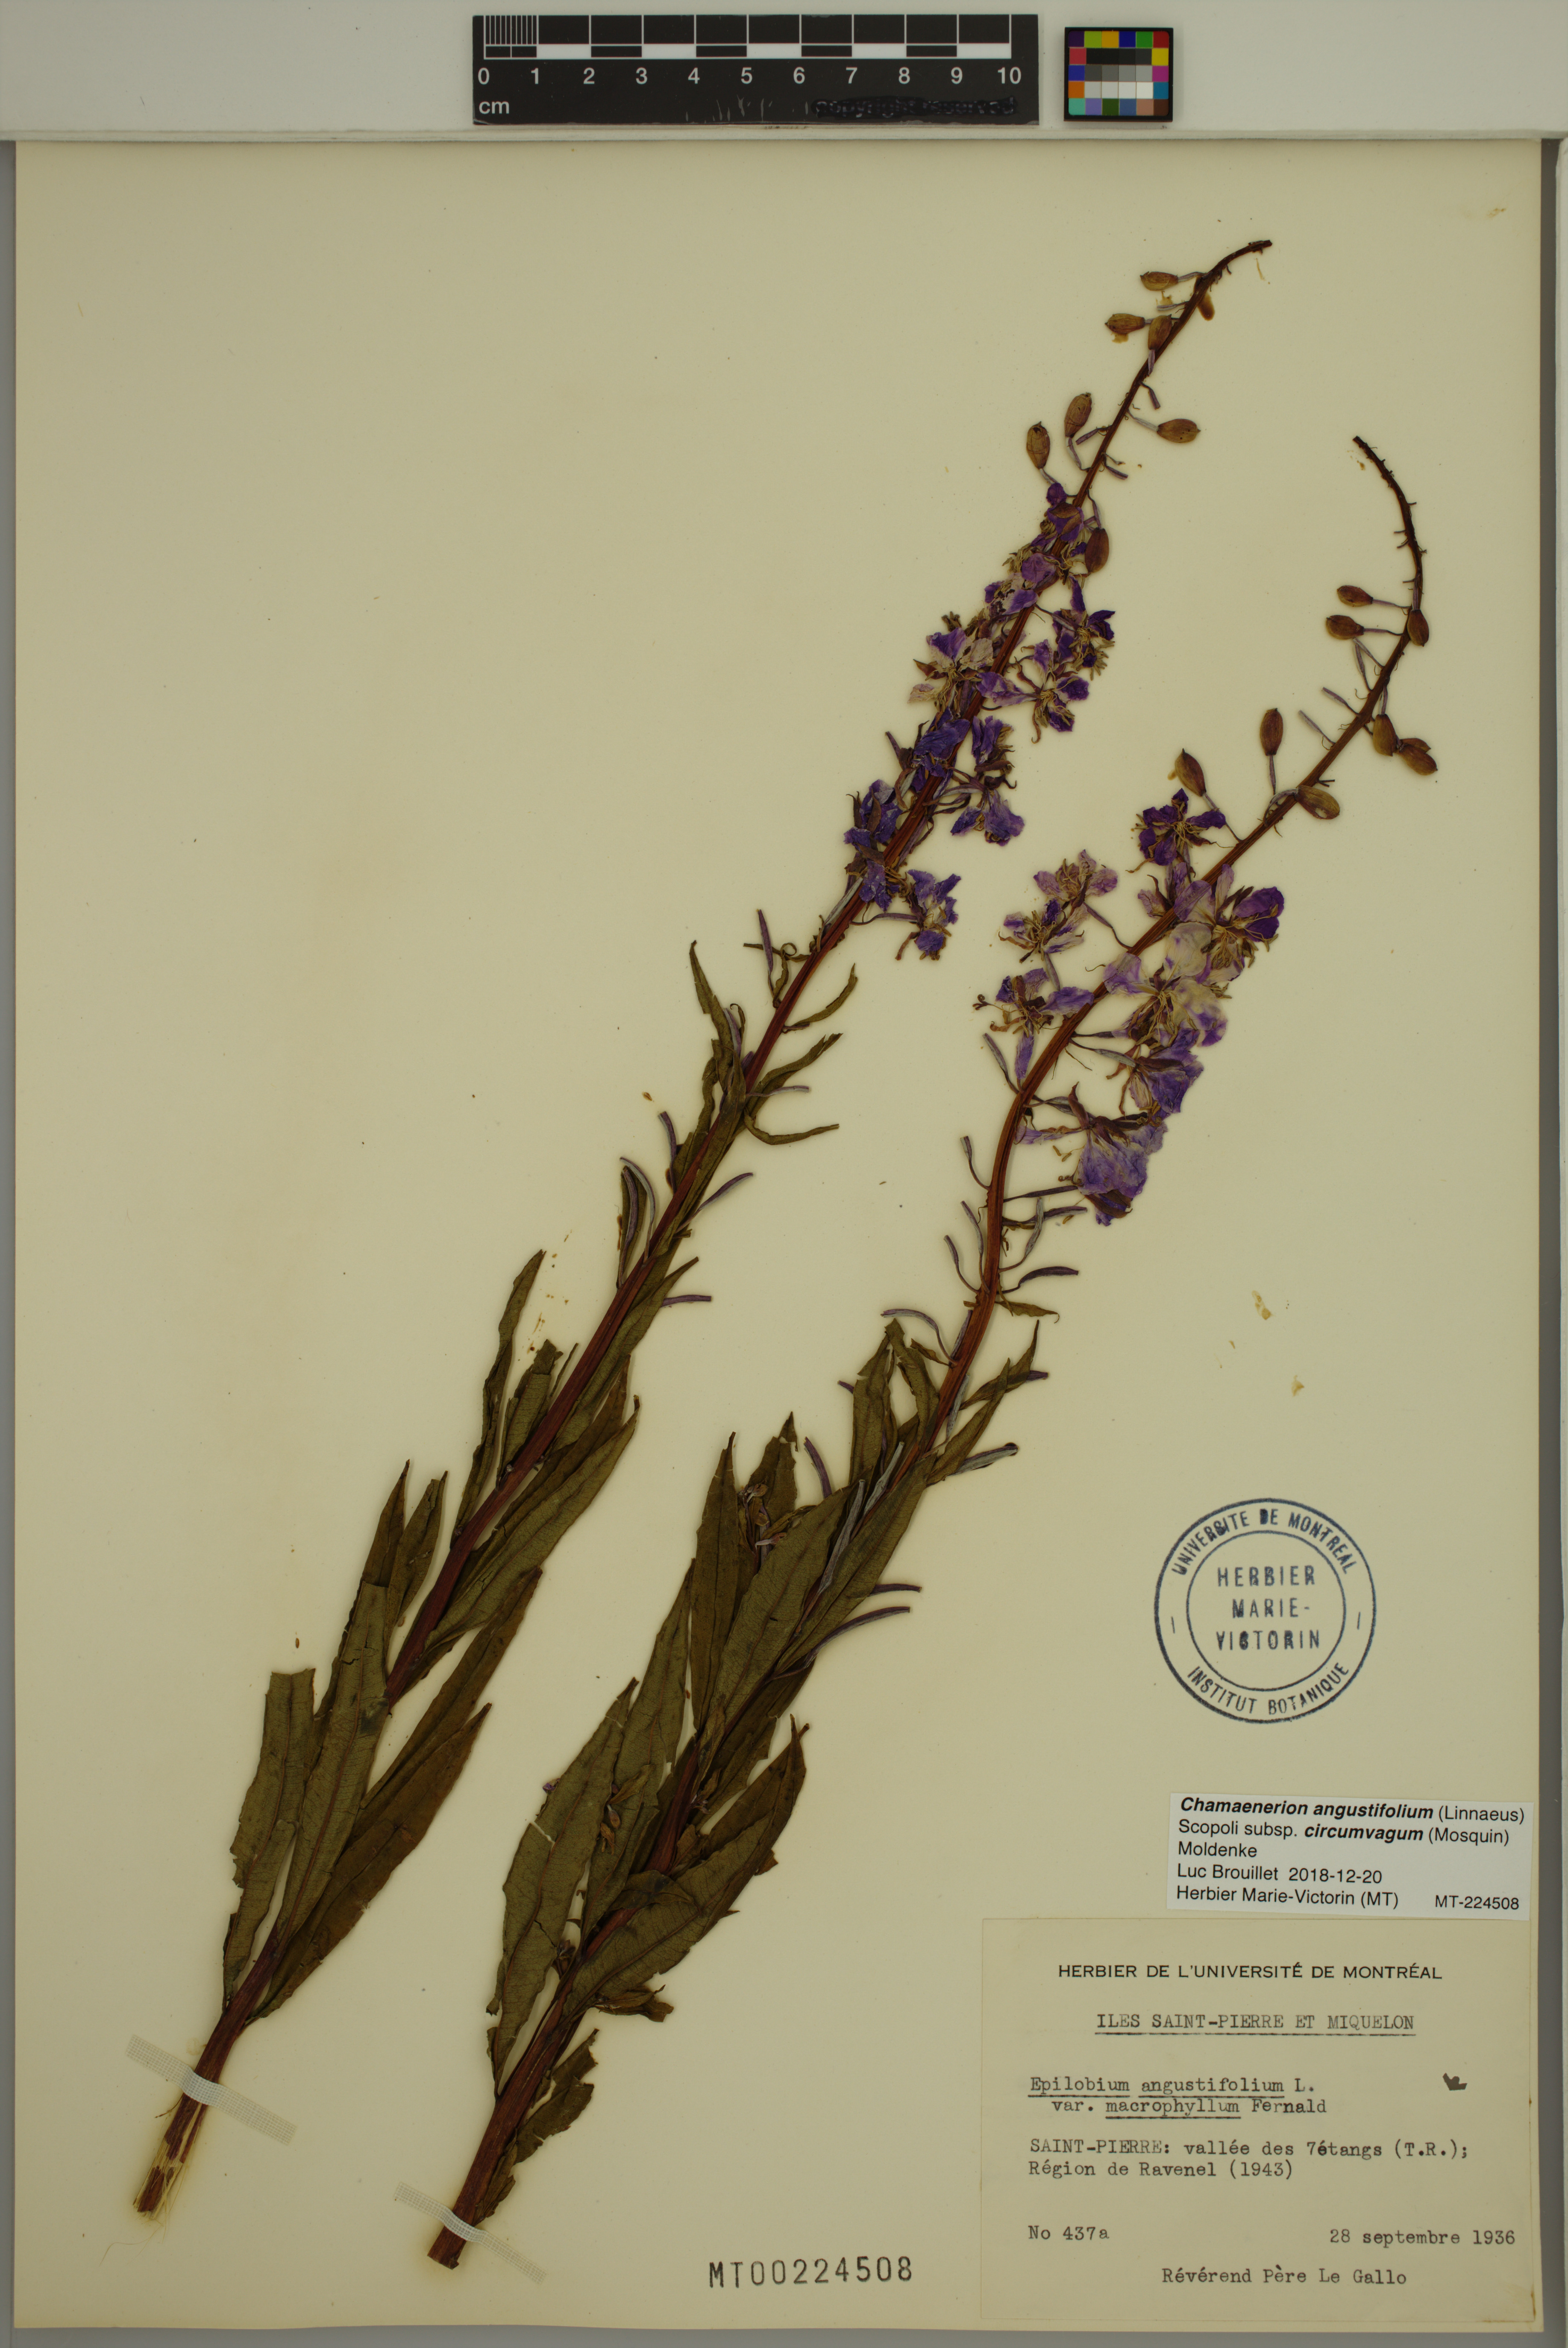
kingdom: Plantae
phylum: Tracheophyta
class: Magnoliopsida
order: Myrtales
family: Onagraceae
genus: Chamaenerion
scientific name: Chamaenerion angustifolium
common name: Fireweed
